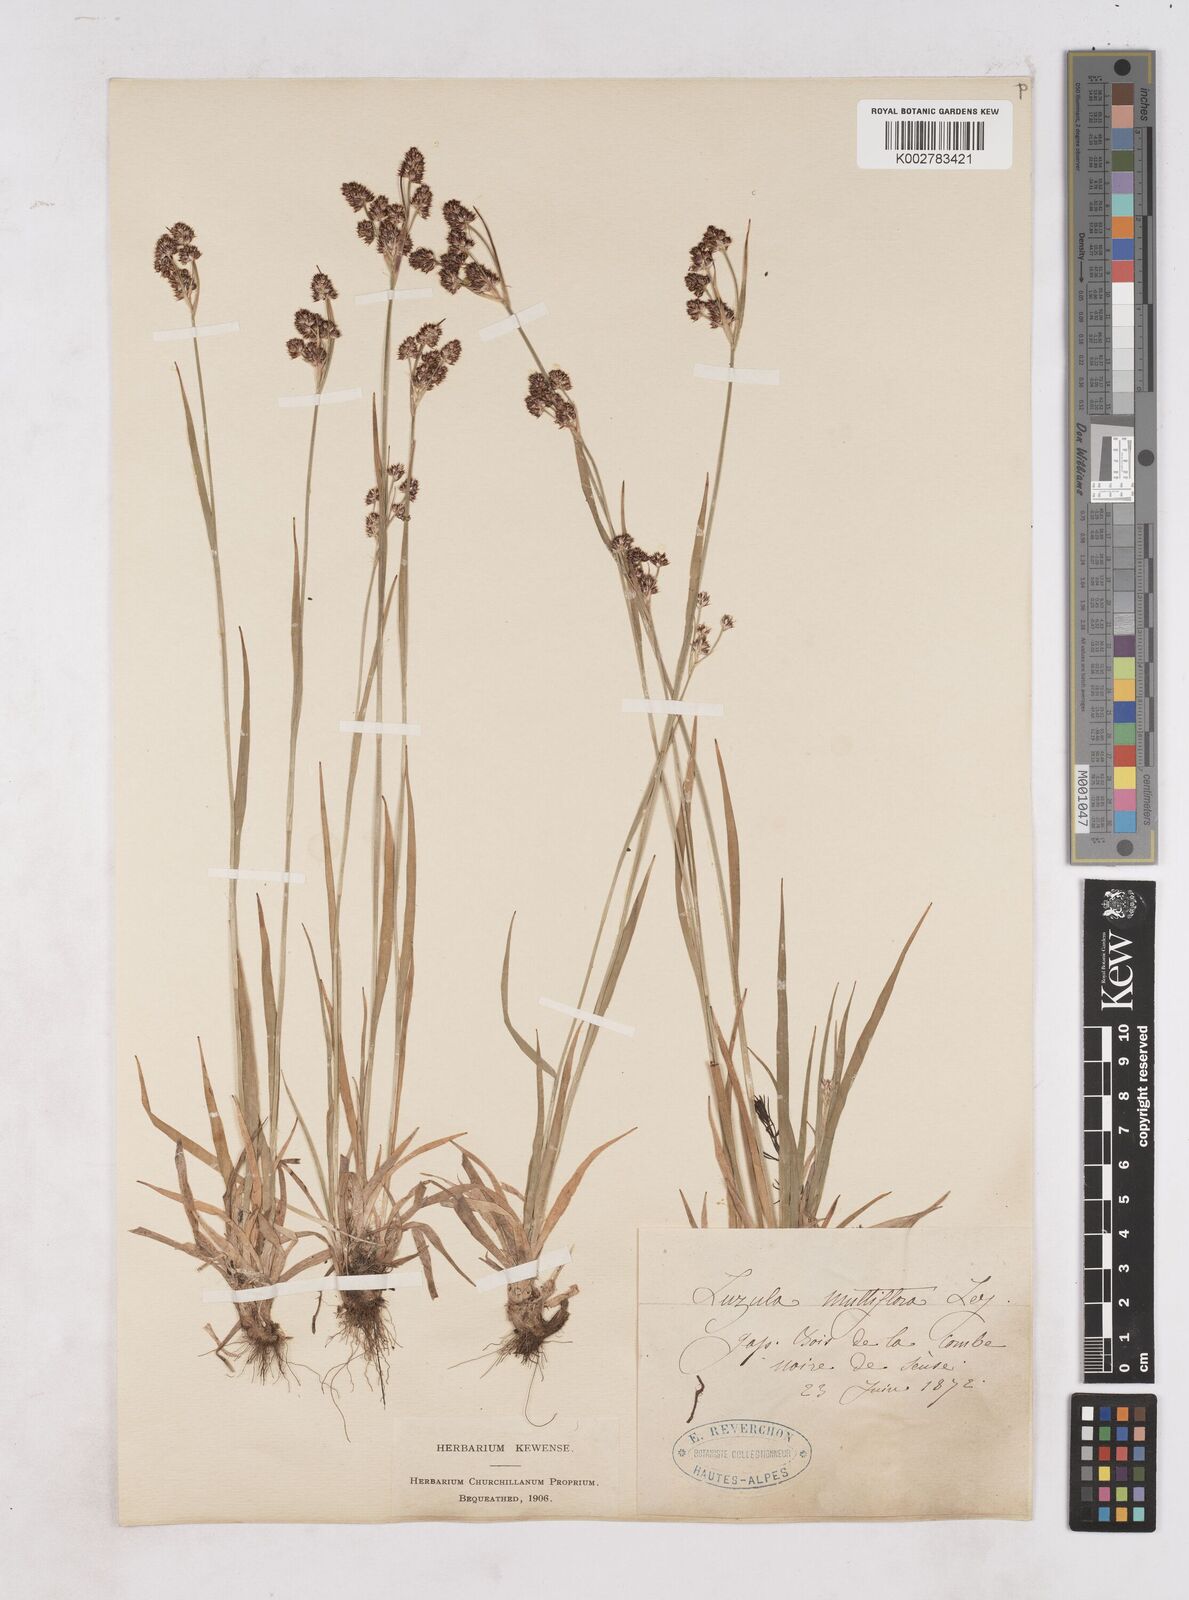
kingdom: Plantae
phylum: Tracheophyta
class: Liliopsida
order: Poales
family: Juncaceae
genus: Luzula
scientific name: Luzula multiflora
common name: Heath wood-rush
